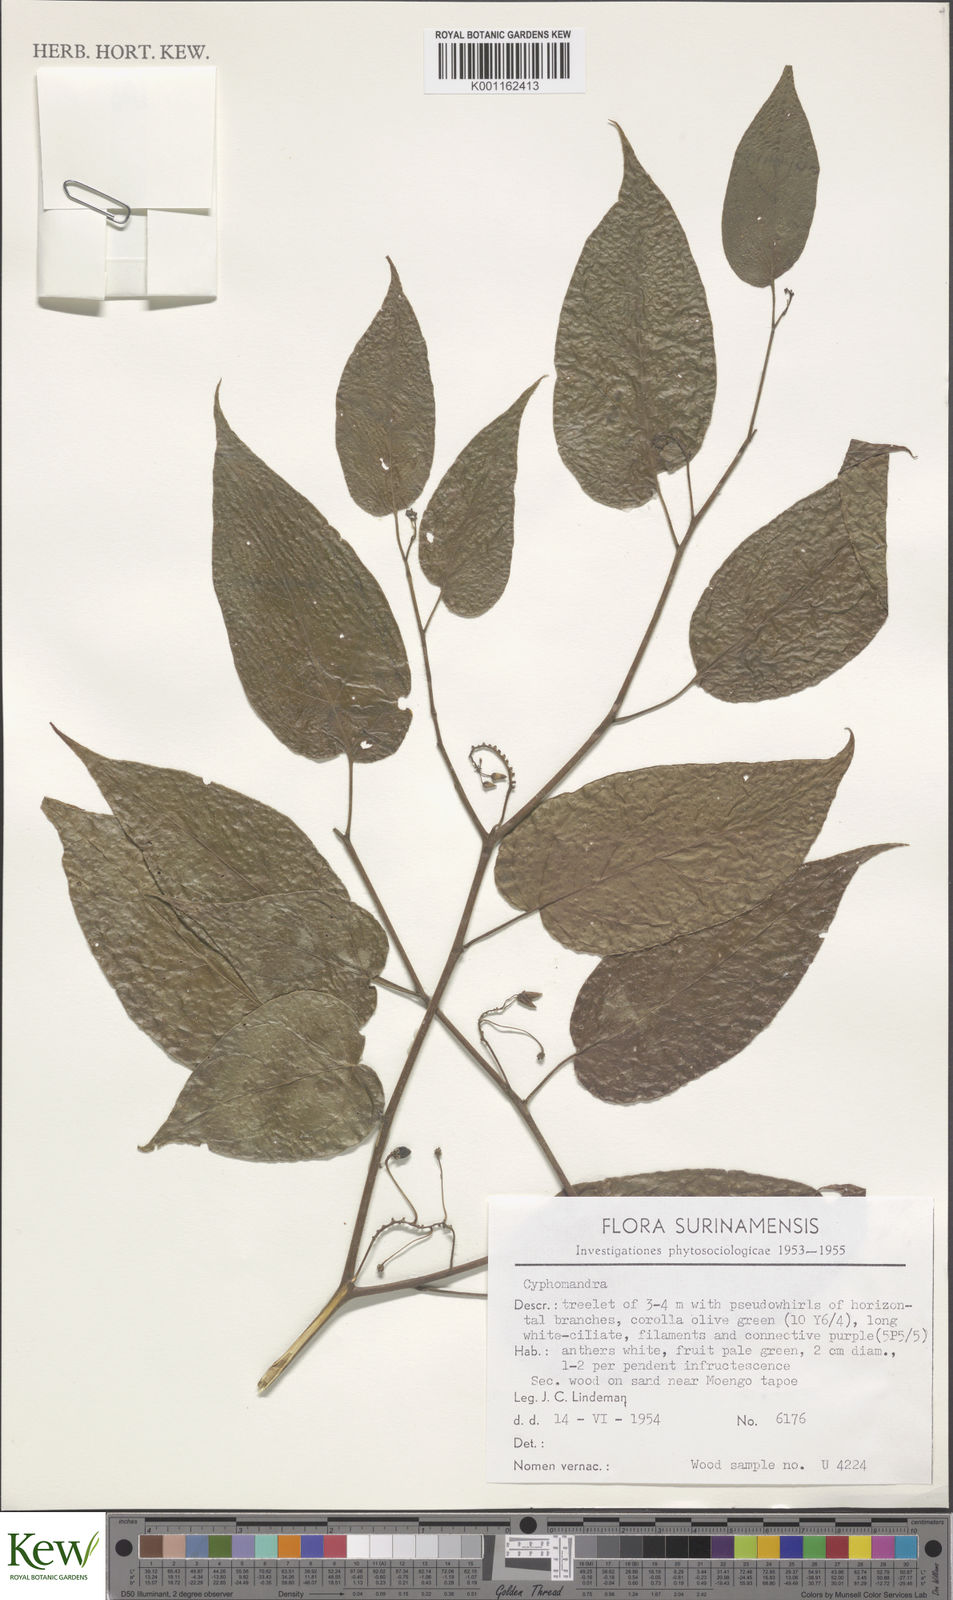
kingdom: Plantae
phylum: Tracheophyta
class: Magnoliopsida
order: Solanales
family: Solanaceae
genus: Solanum
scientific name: Solanum
